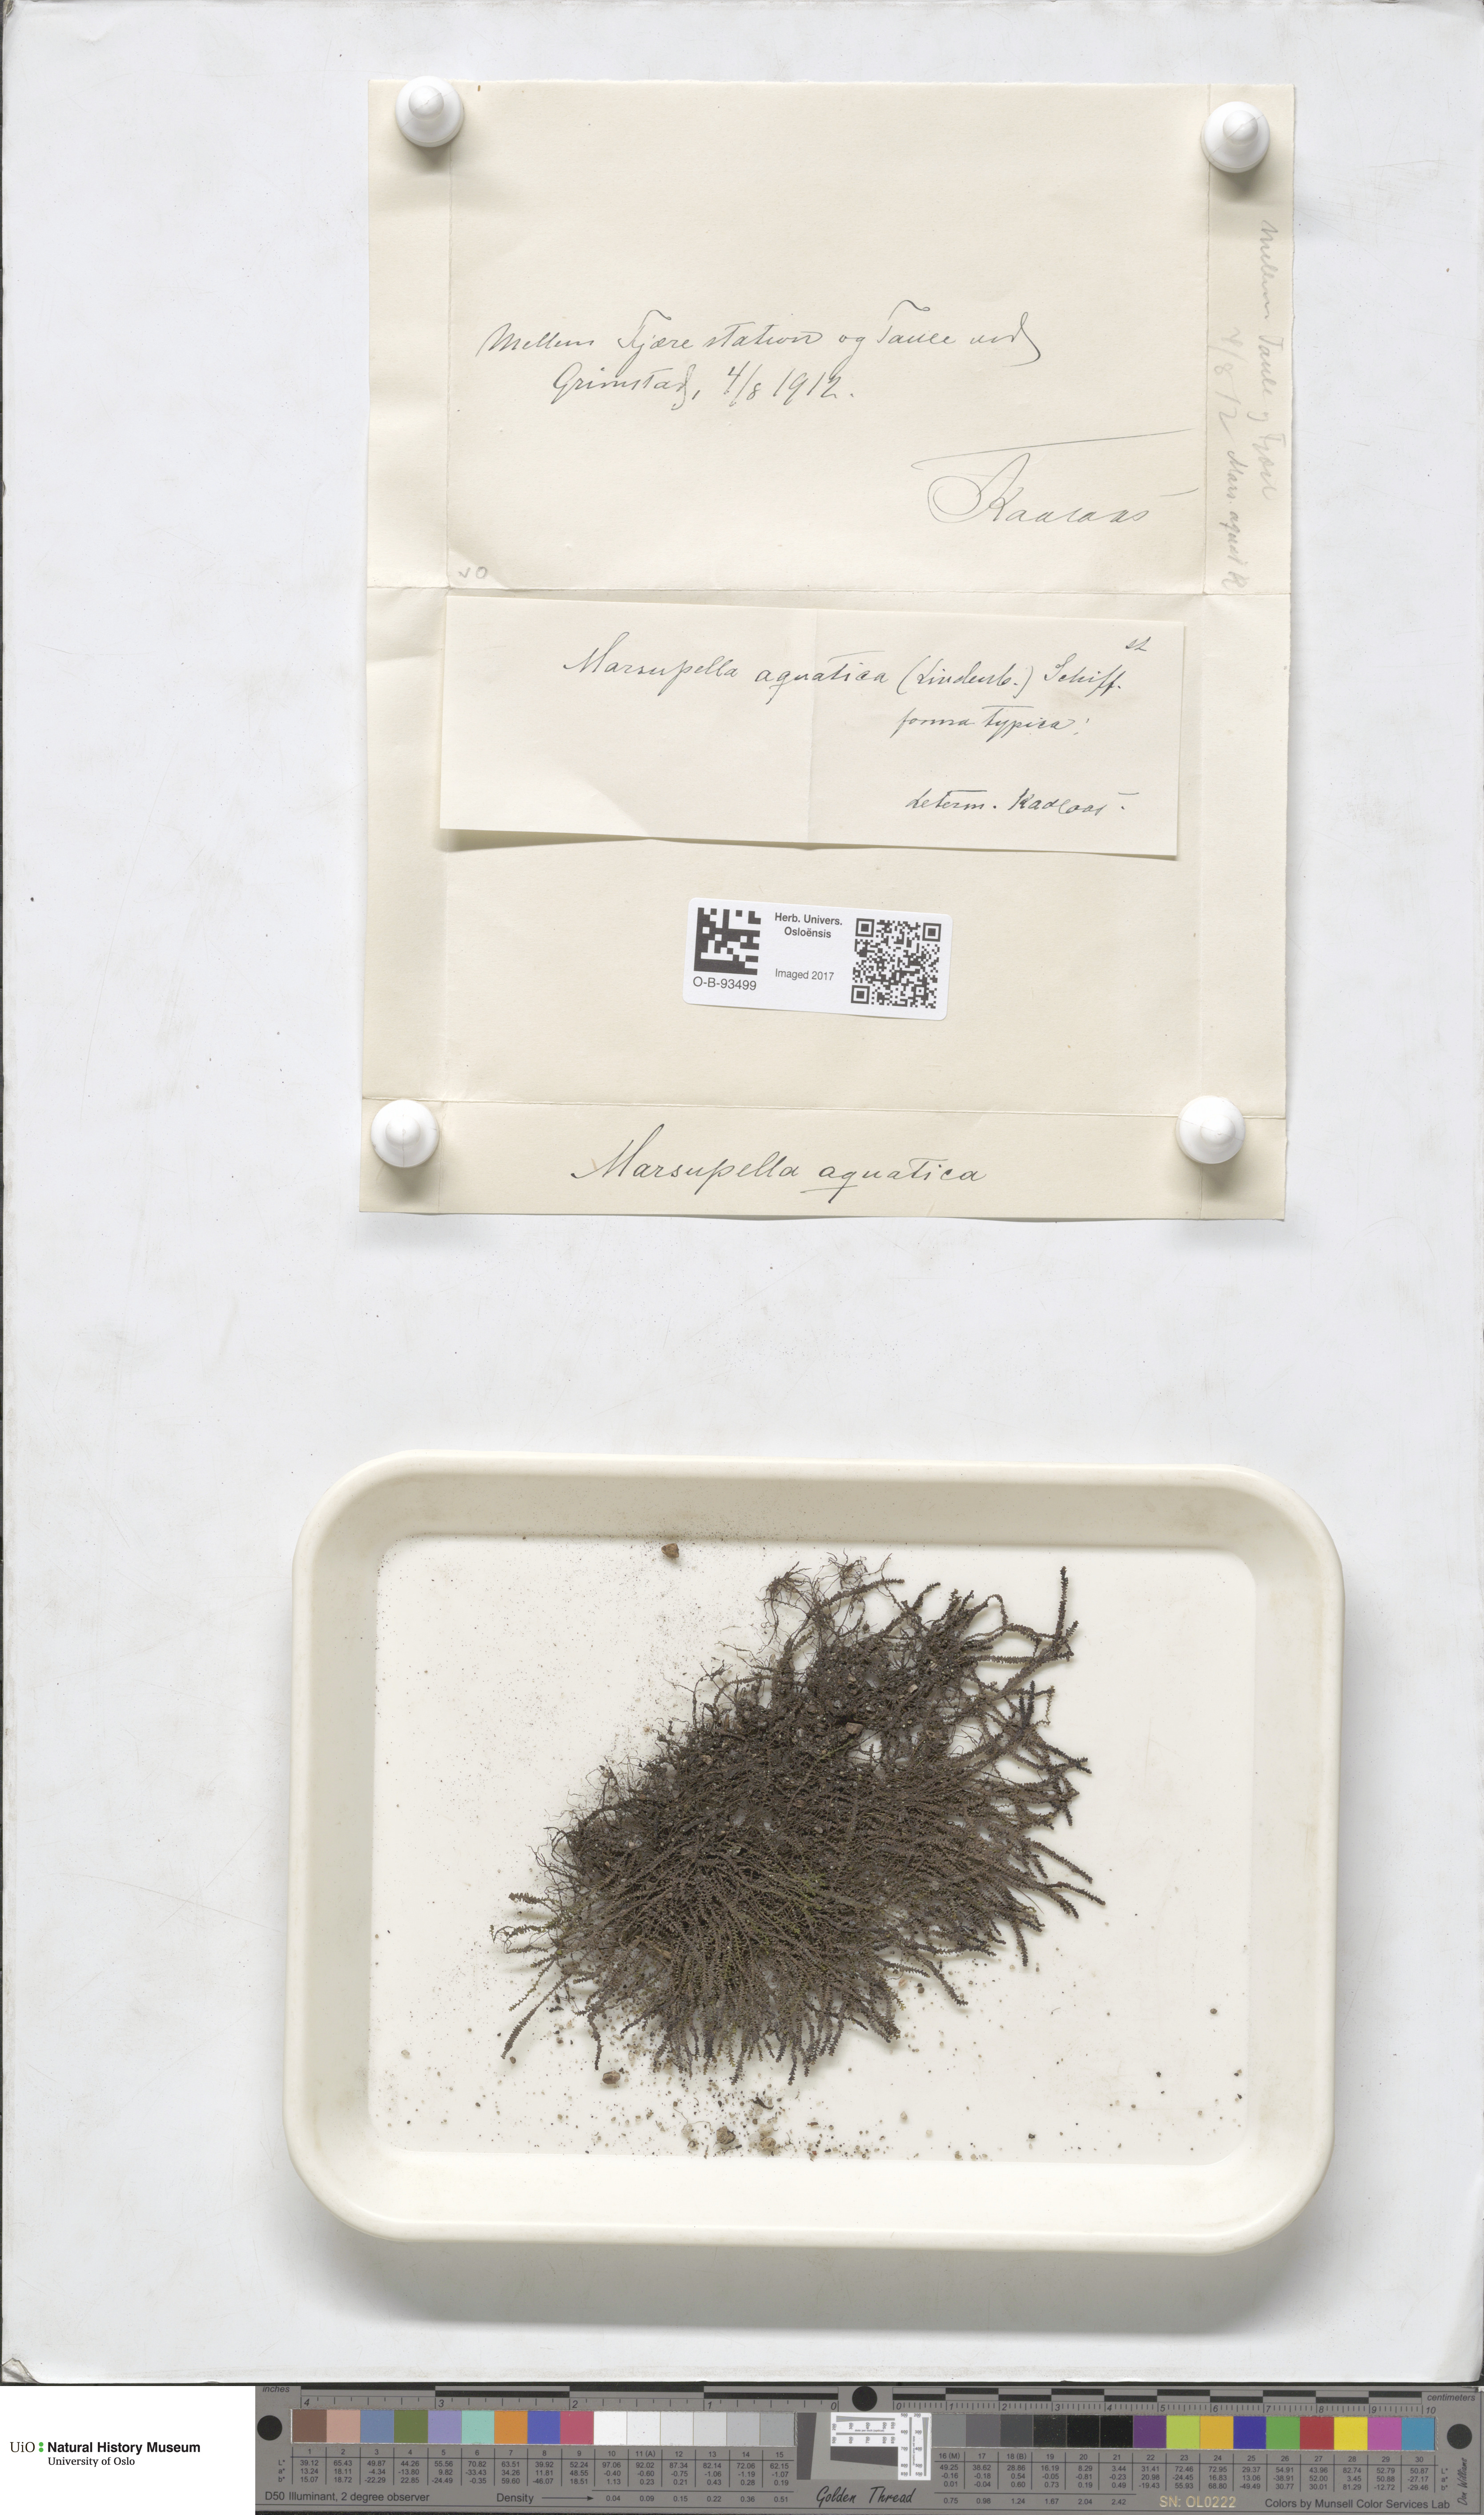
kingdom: Plantae
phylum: Marchantiophyta
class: Jungermanniopsida
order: Jungermanniales
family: Gymnomitriaceae
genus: Marsupella
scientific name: Marsupella emarginata
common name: Notched rustwort
